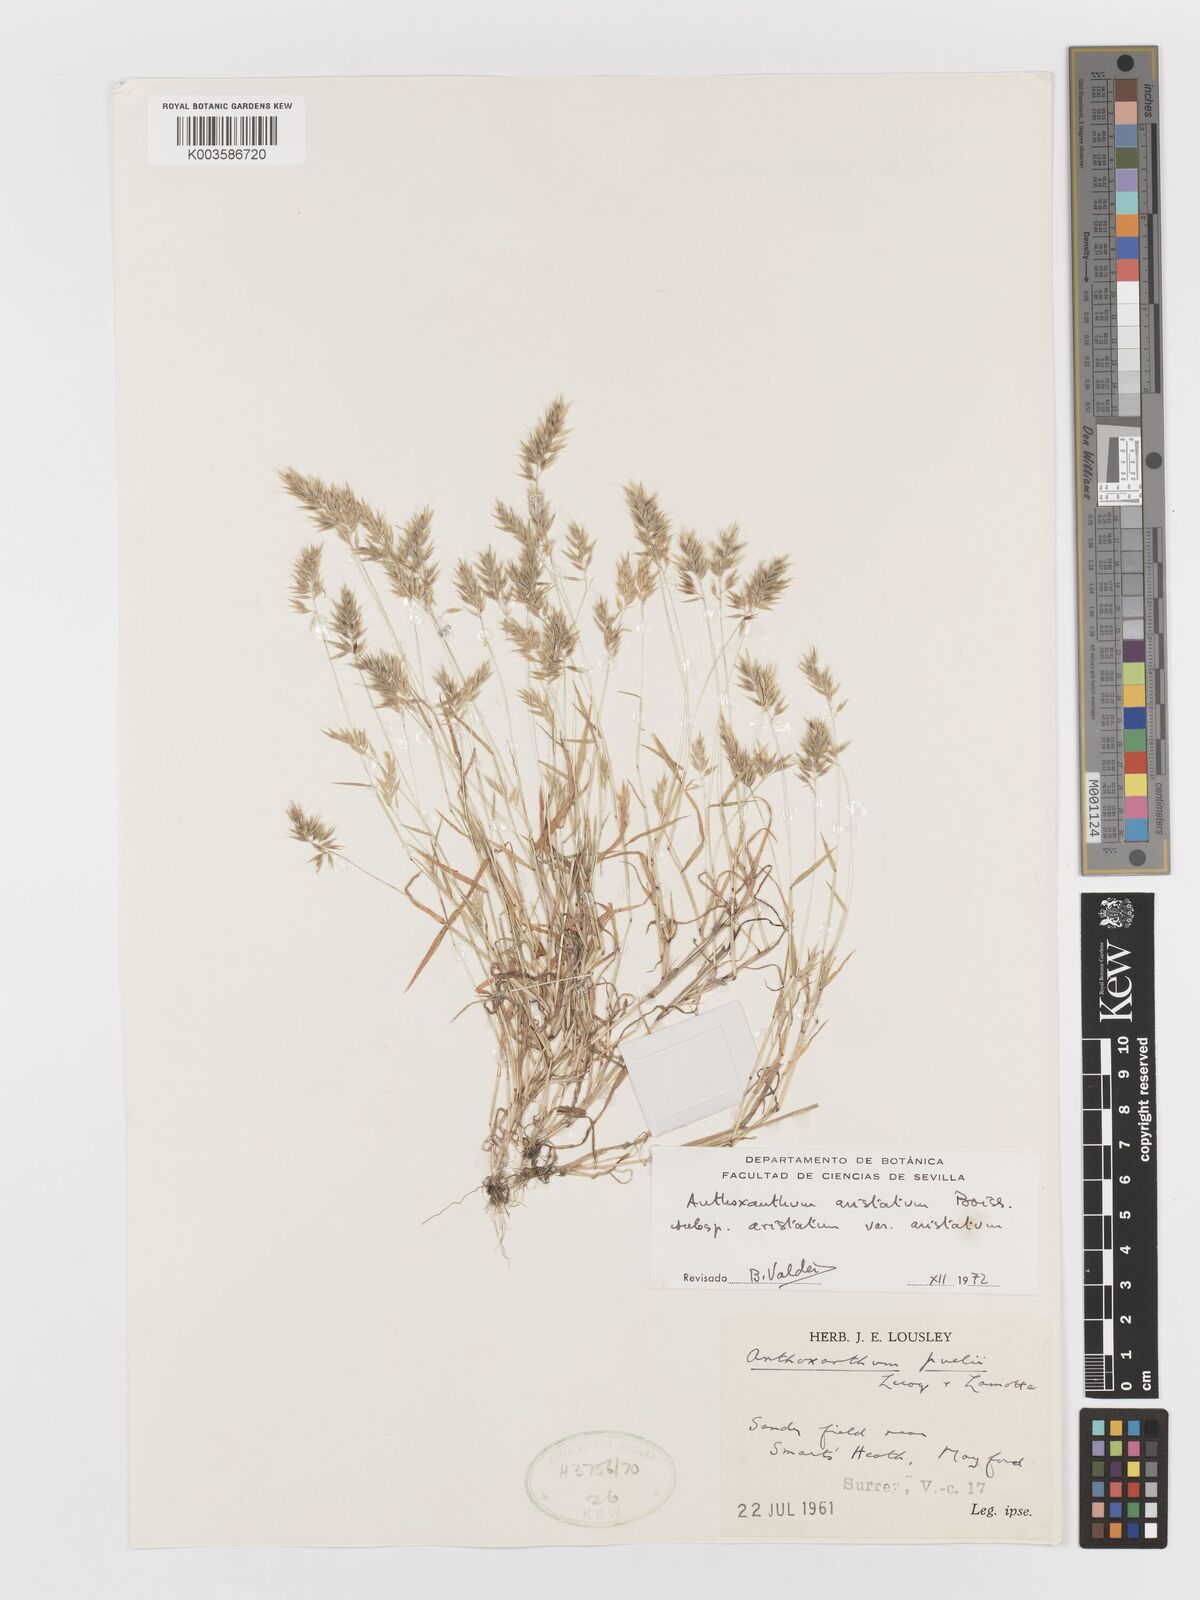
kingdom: Plantae
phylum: Tracheophyta
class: Liliopsida
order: Poales
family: Poaceae
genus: Anthoxanthum
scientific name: Anthoxanthum aristatum
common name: Annual vernal-grass
